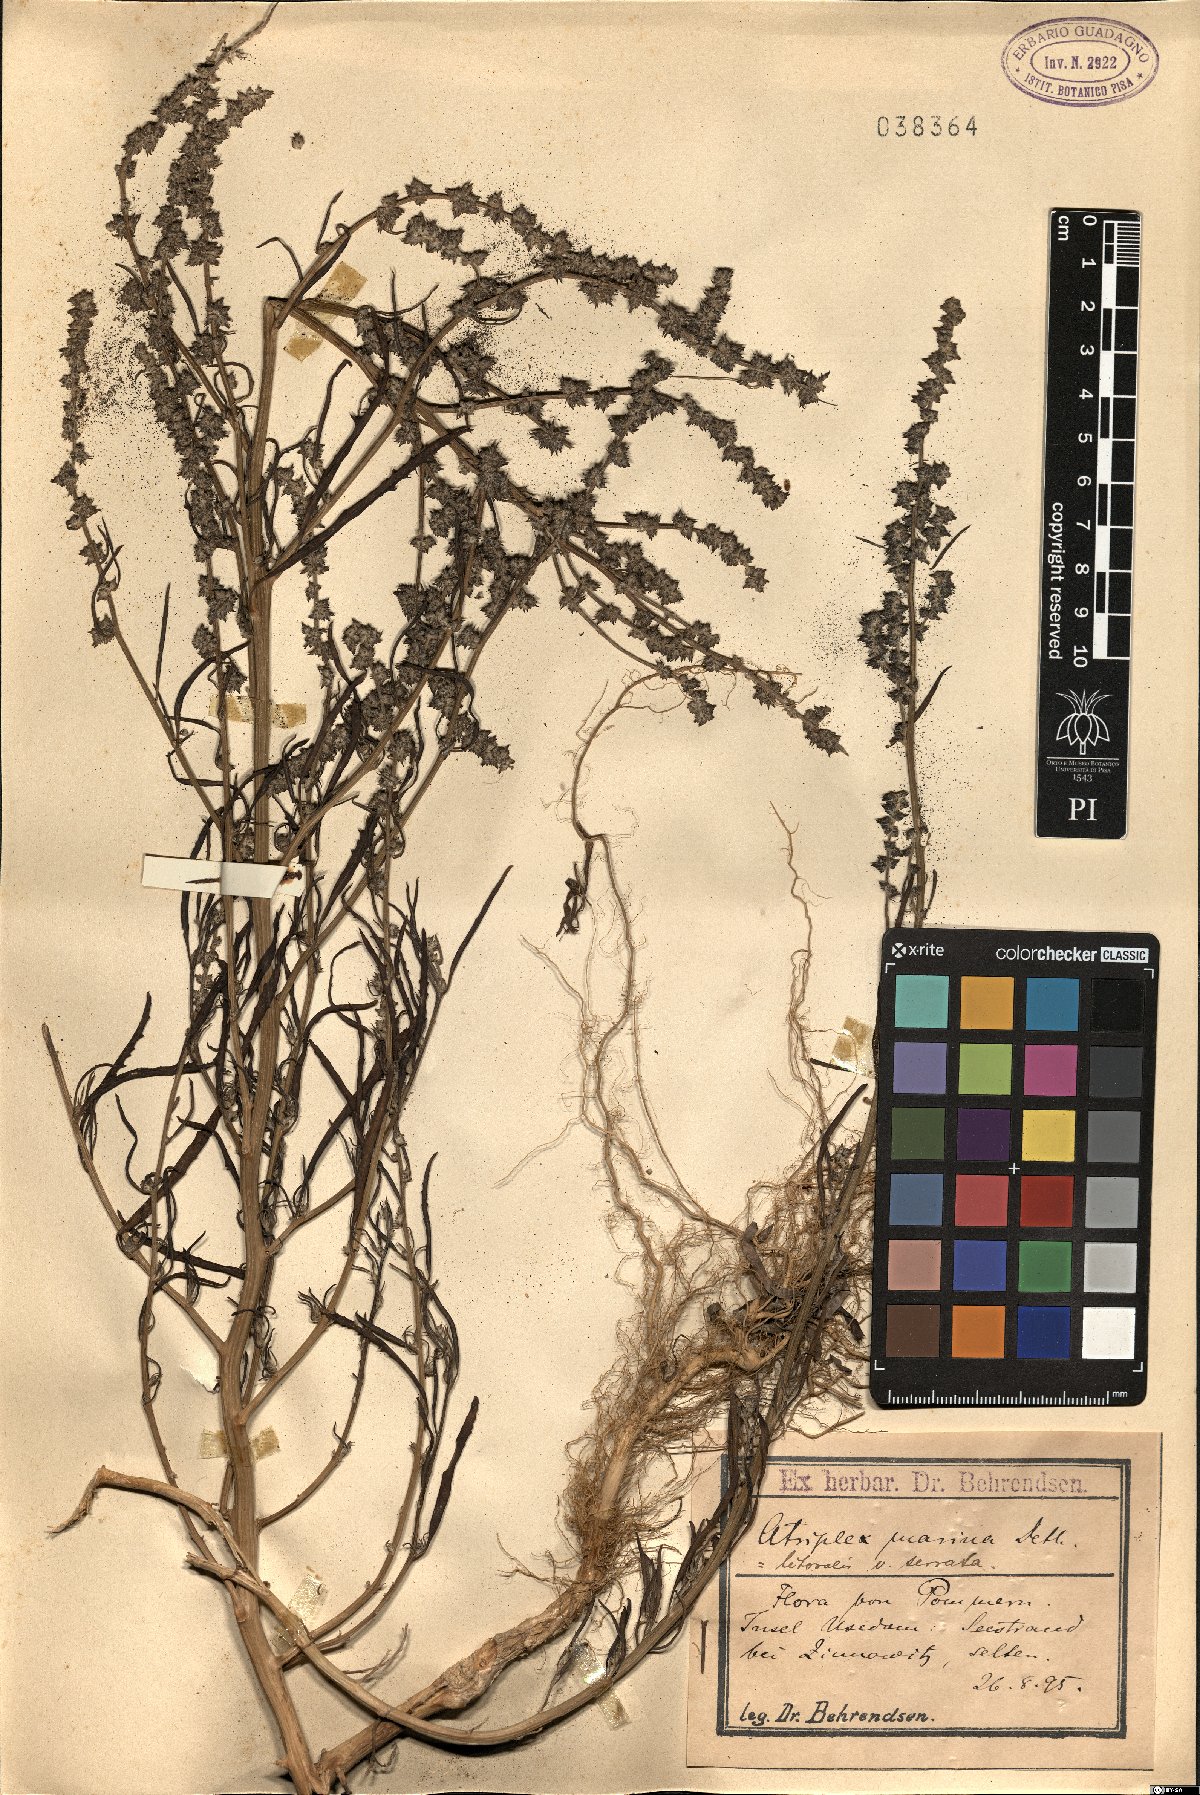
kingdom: Plantae
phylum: Tracheophyta
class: Magnoliopsida
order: Caryophyllales
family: Amaranthaceae
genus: Atriplex
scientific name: Atriplex littoralis
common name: Grass-leaved orache
